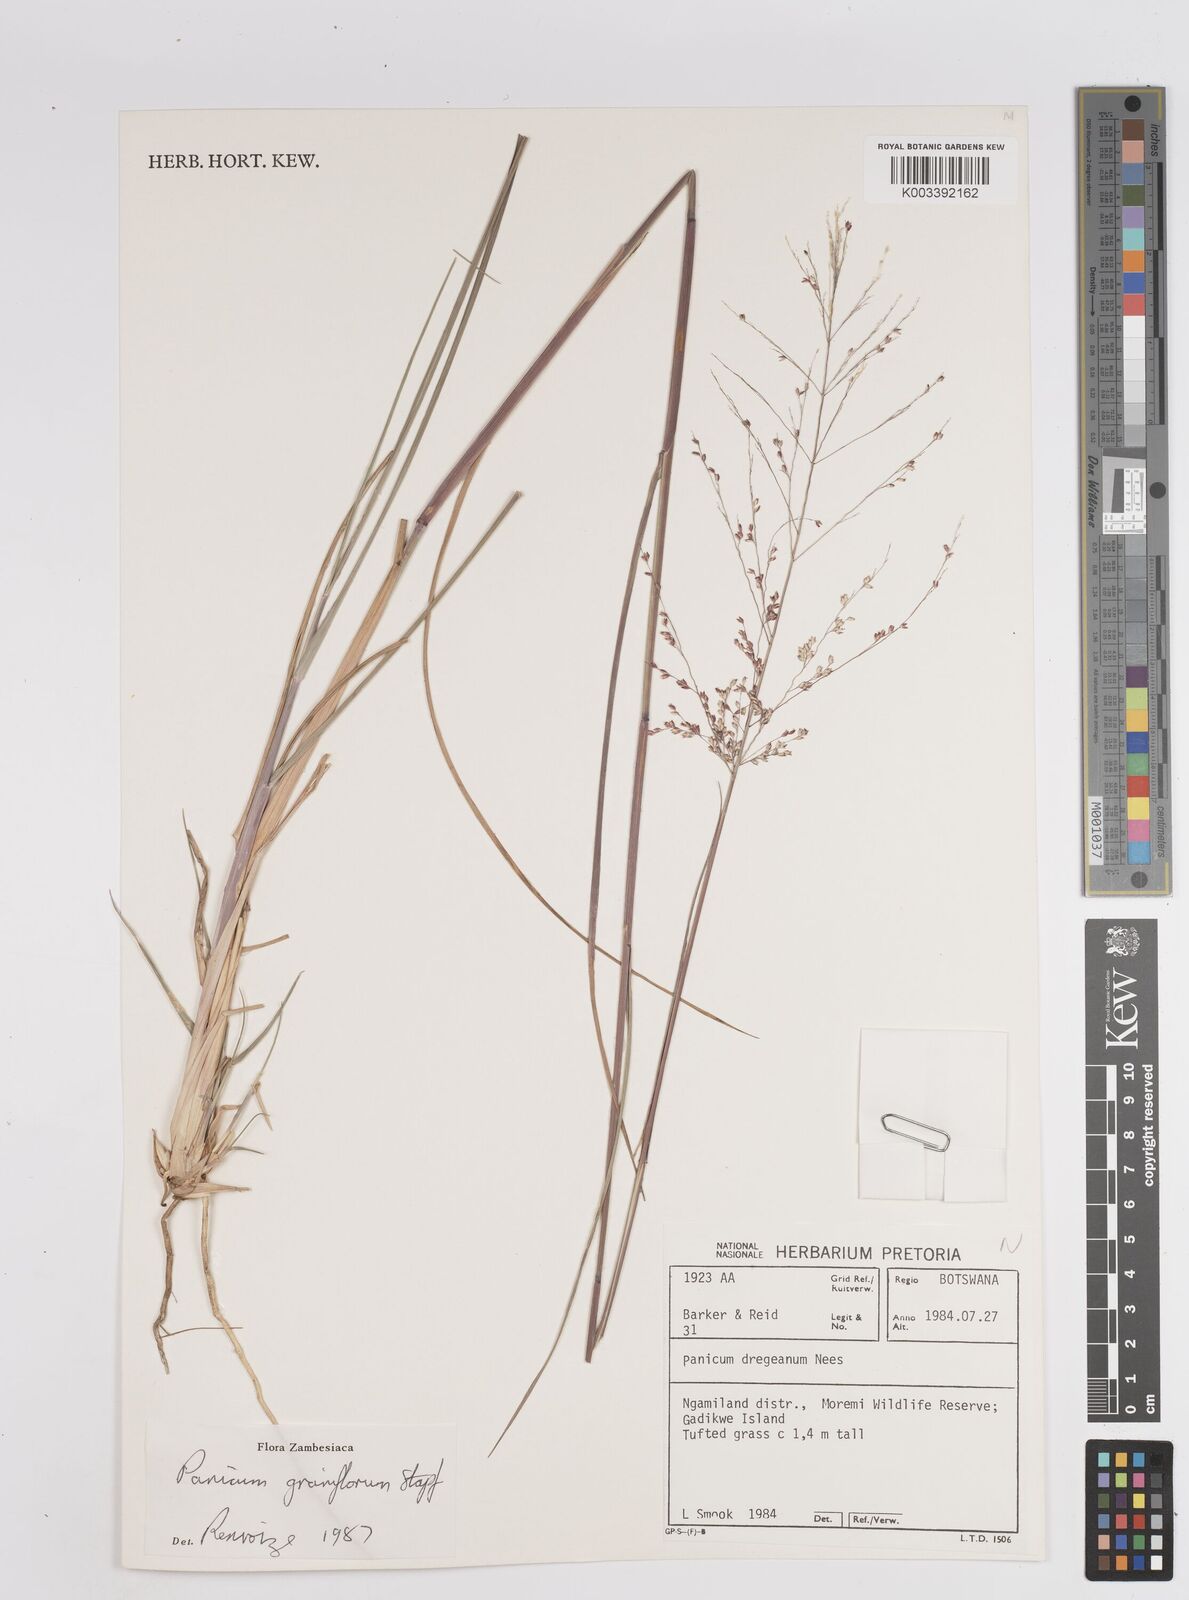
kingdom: Plantae
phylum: Tracheophyta
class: Liliopsida
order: Poales
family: Poaceae
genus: Panicum
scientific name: Panicum graniflorum
